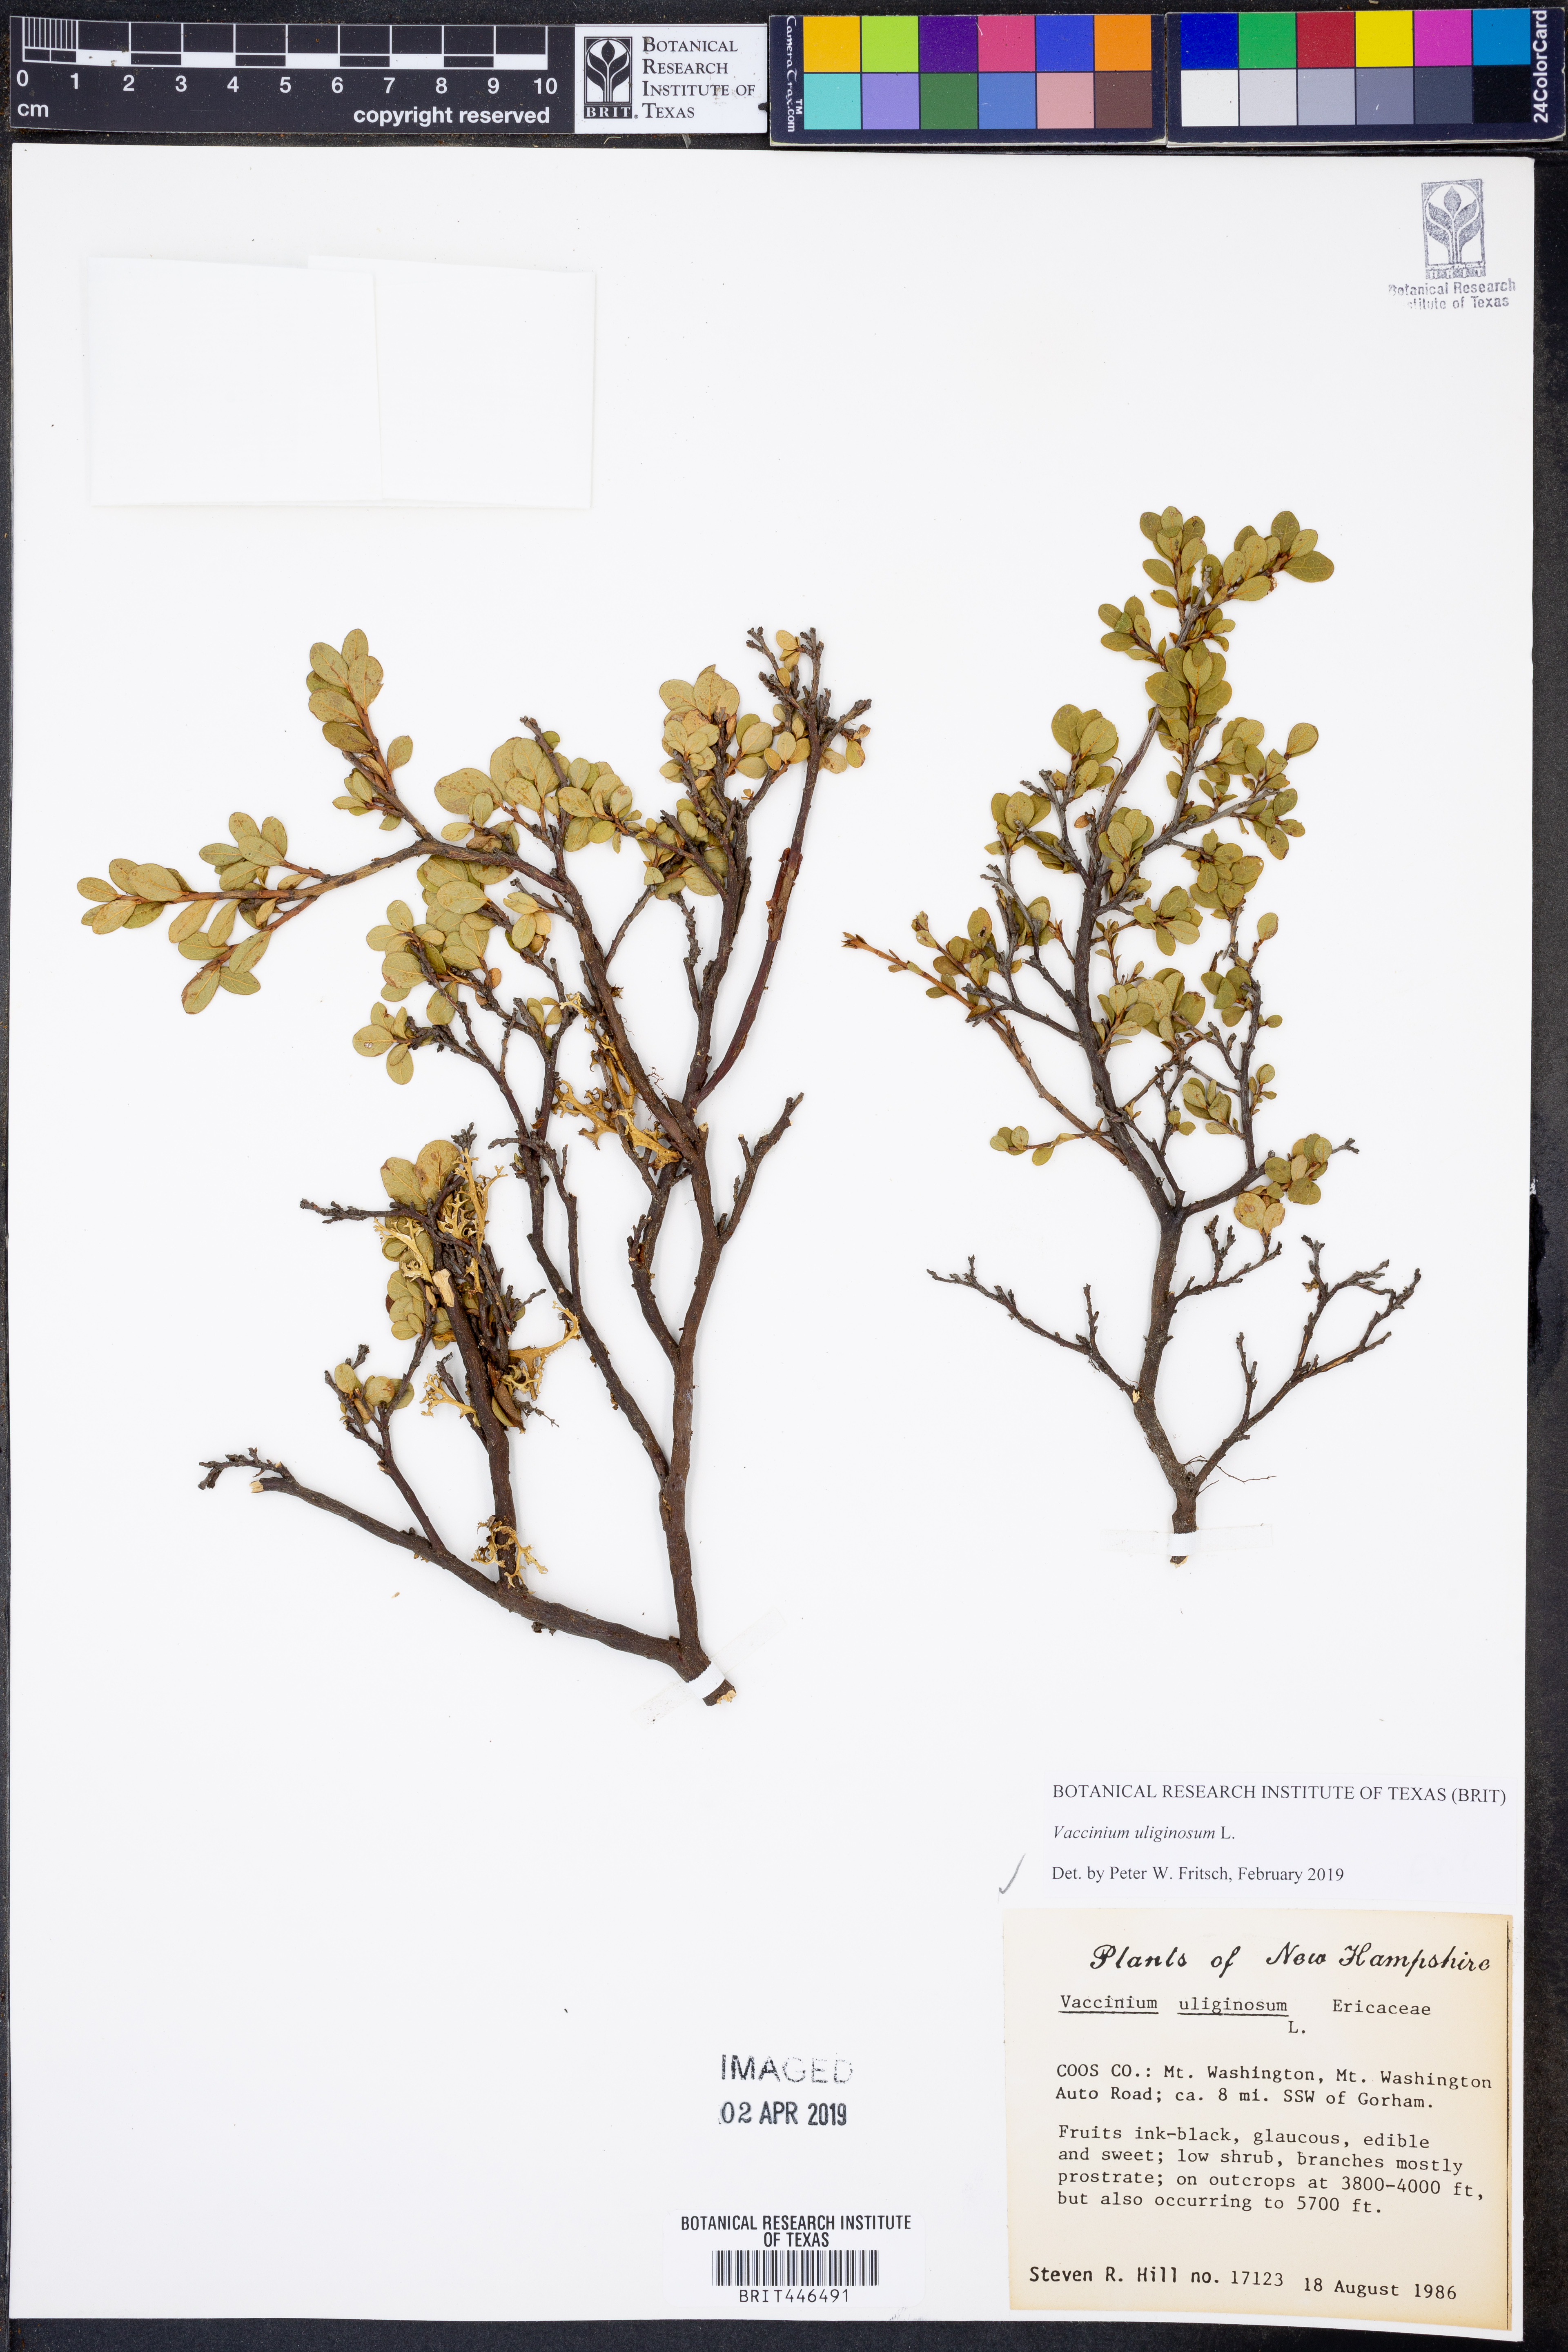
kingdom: Plantae
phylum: Tracheophyta
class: Magnoliopsida
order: Ericales
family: Ericaceae
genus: Vaccinium
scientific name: Vaccinium uliginosum
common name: Bog bilberry
